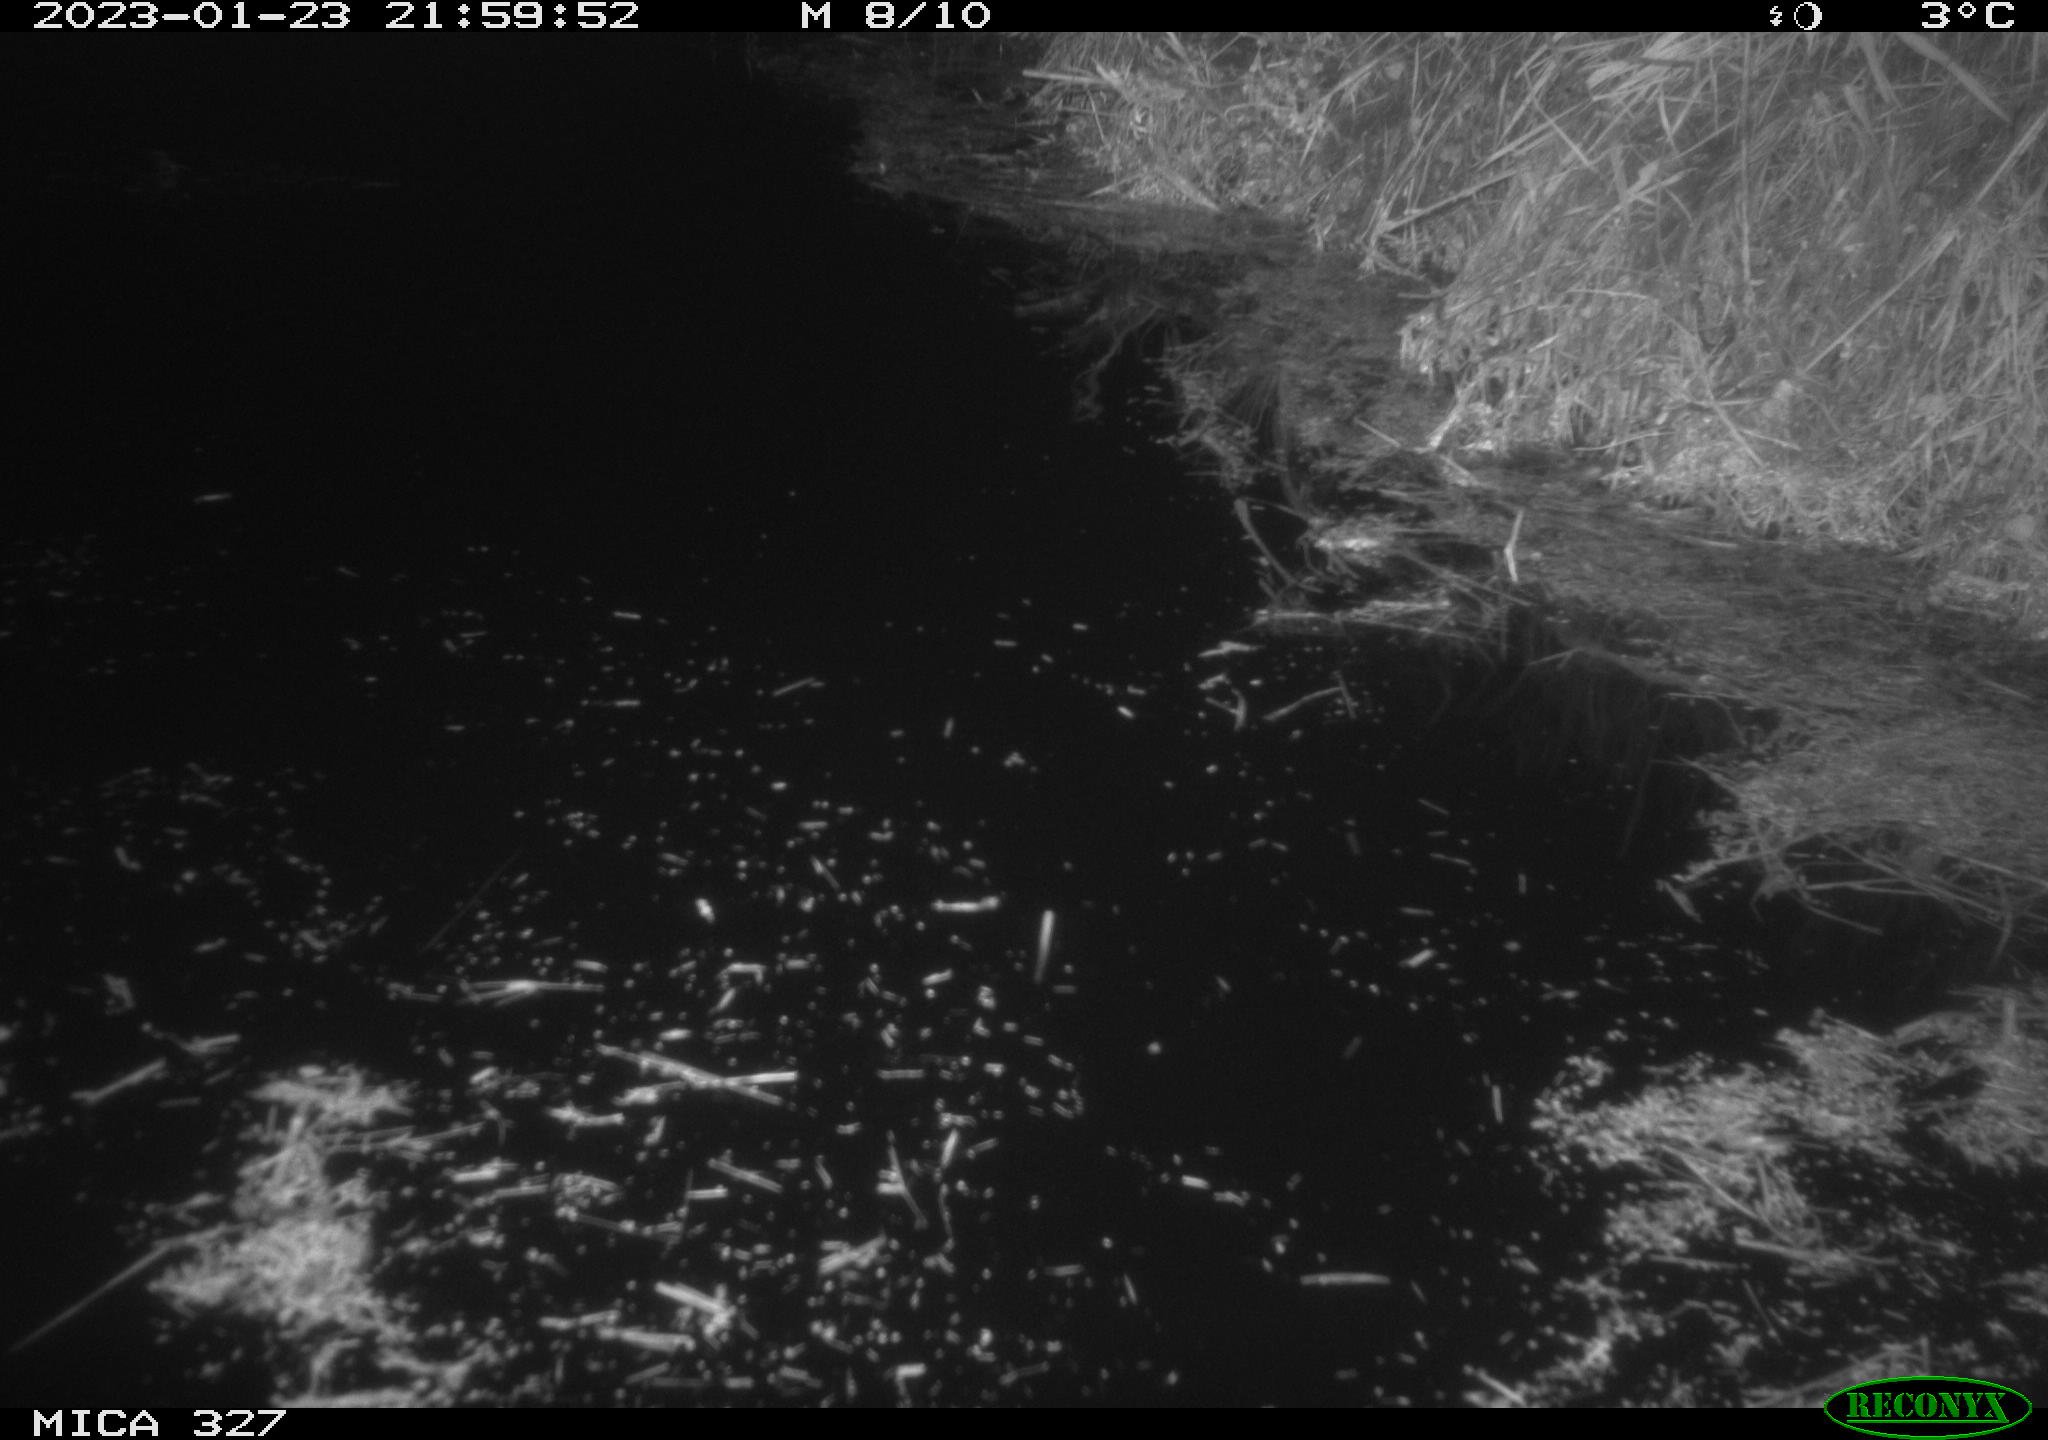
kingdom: Animalia
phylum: Chordata
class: Mammalia
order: Rodentia
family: Cricetidae
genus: Ondatra
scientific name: Ondatra zibethicus
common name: Muskrat
